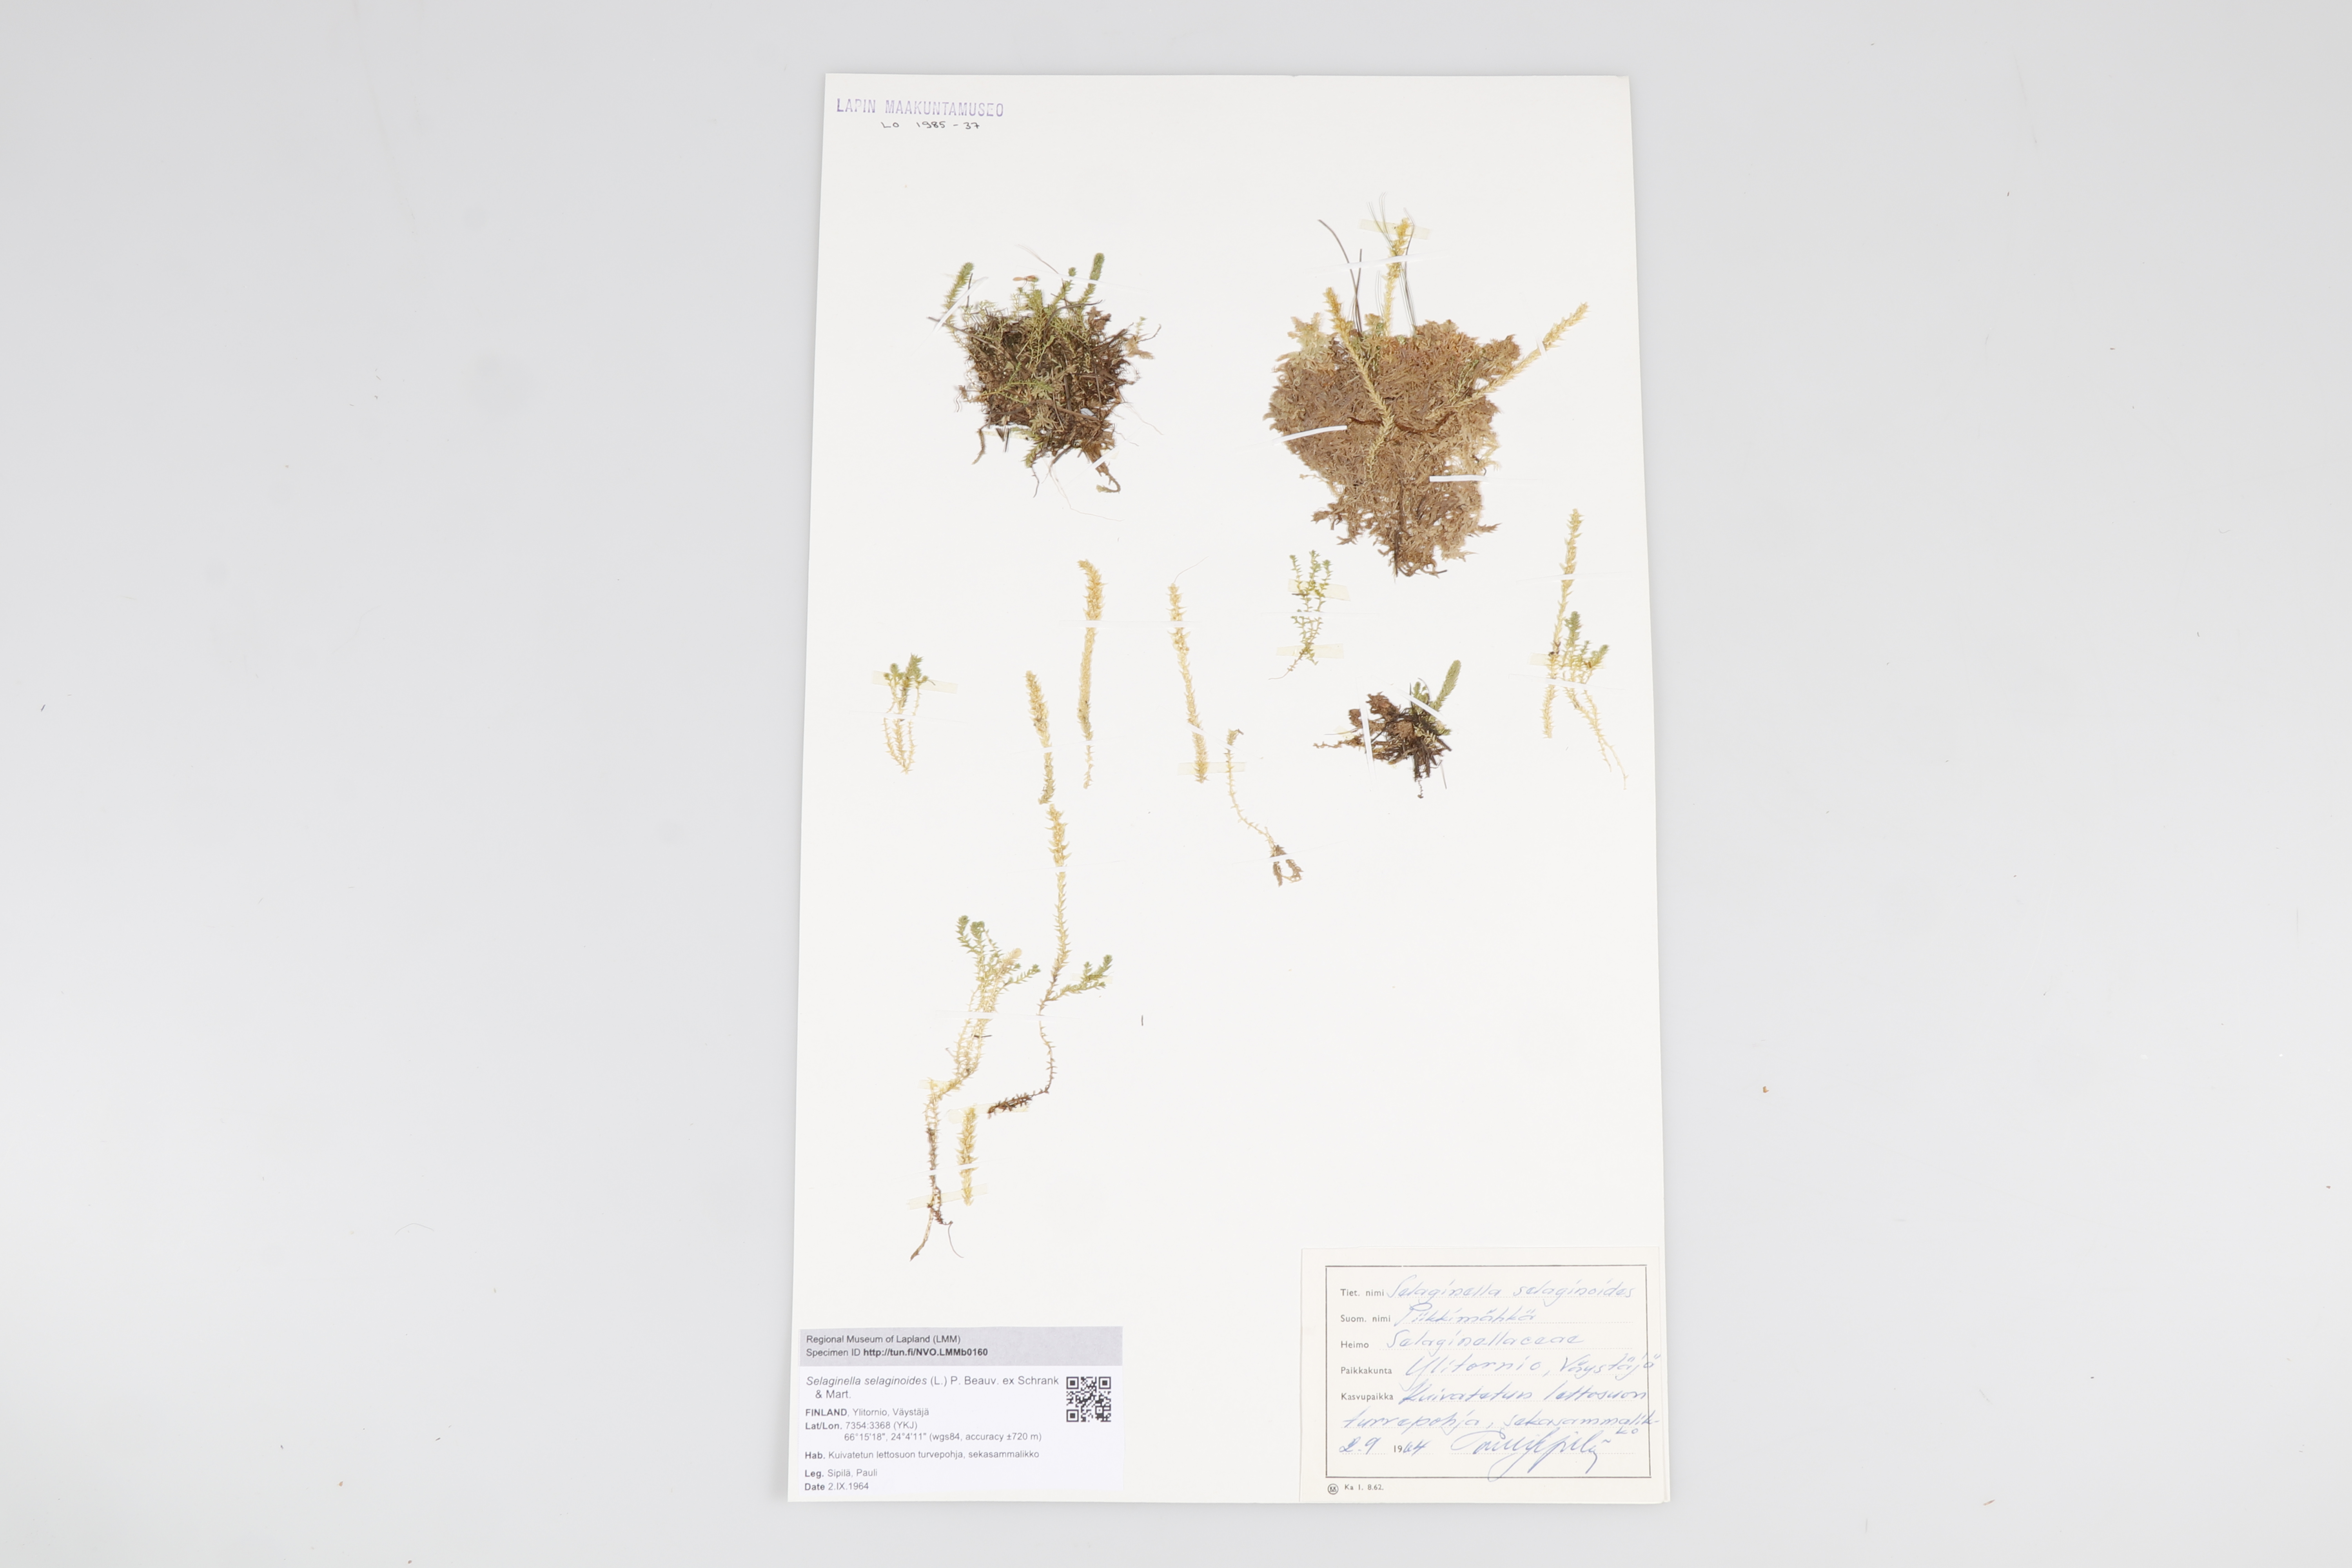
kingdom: Plantae
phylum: Tracheophyta
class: Lycopodiopsida
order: Selaginellales
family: Selaginellaceae
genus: Selaginella
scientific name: Selaginella selaginoides
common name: Prickly mountain-moss
